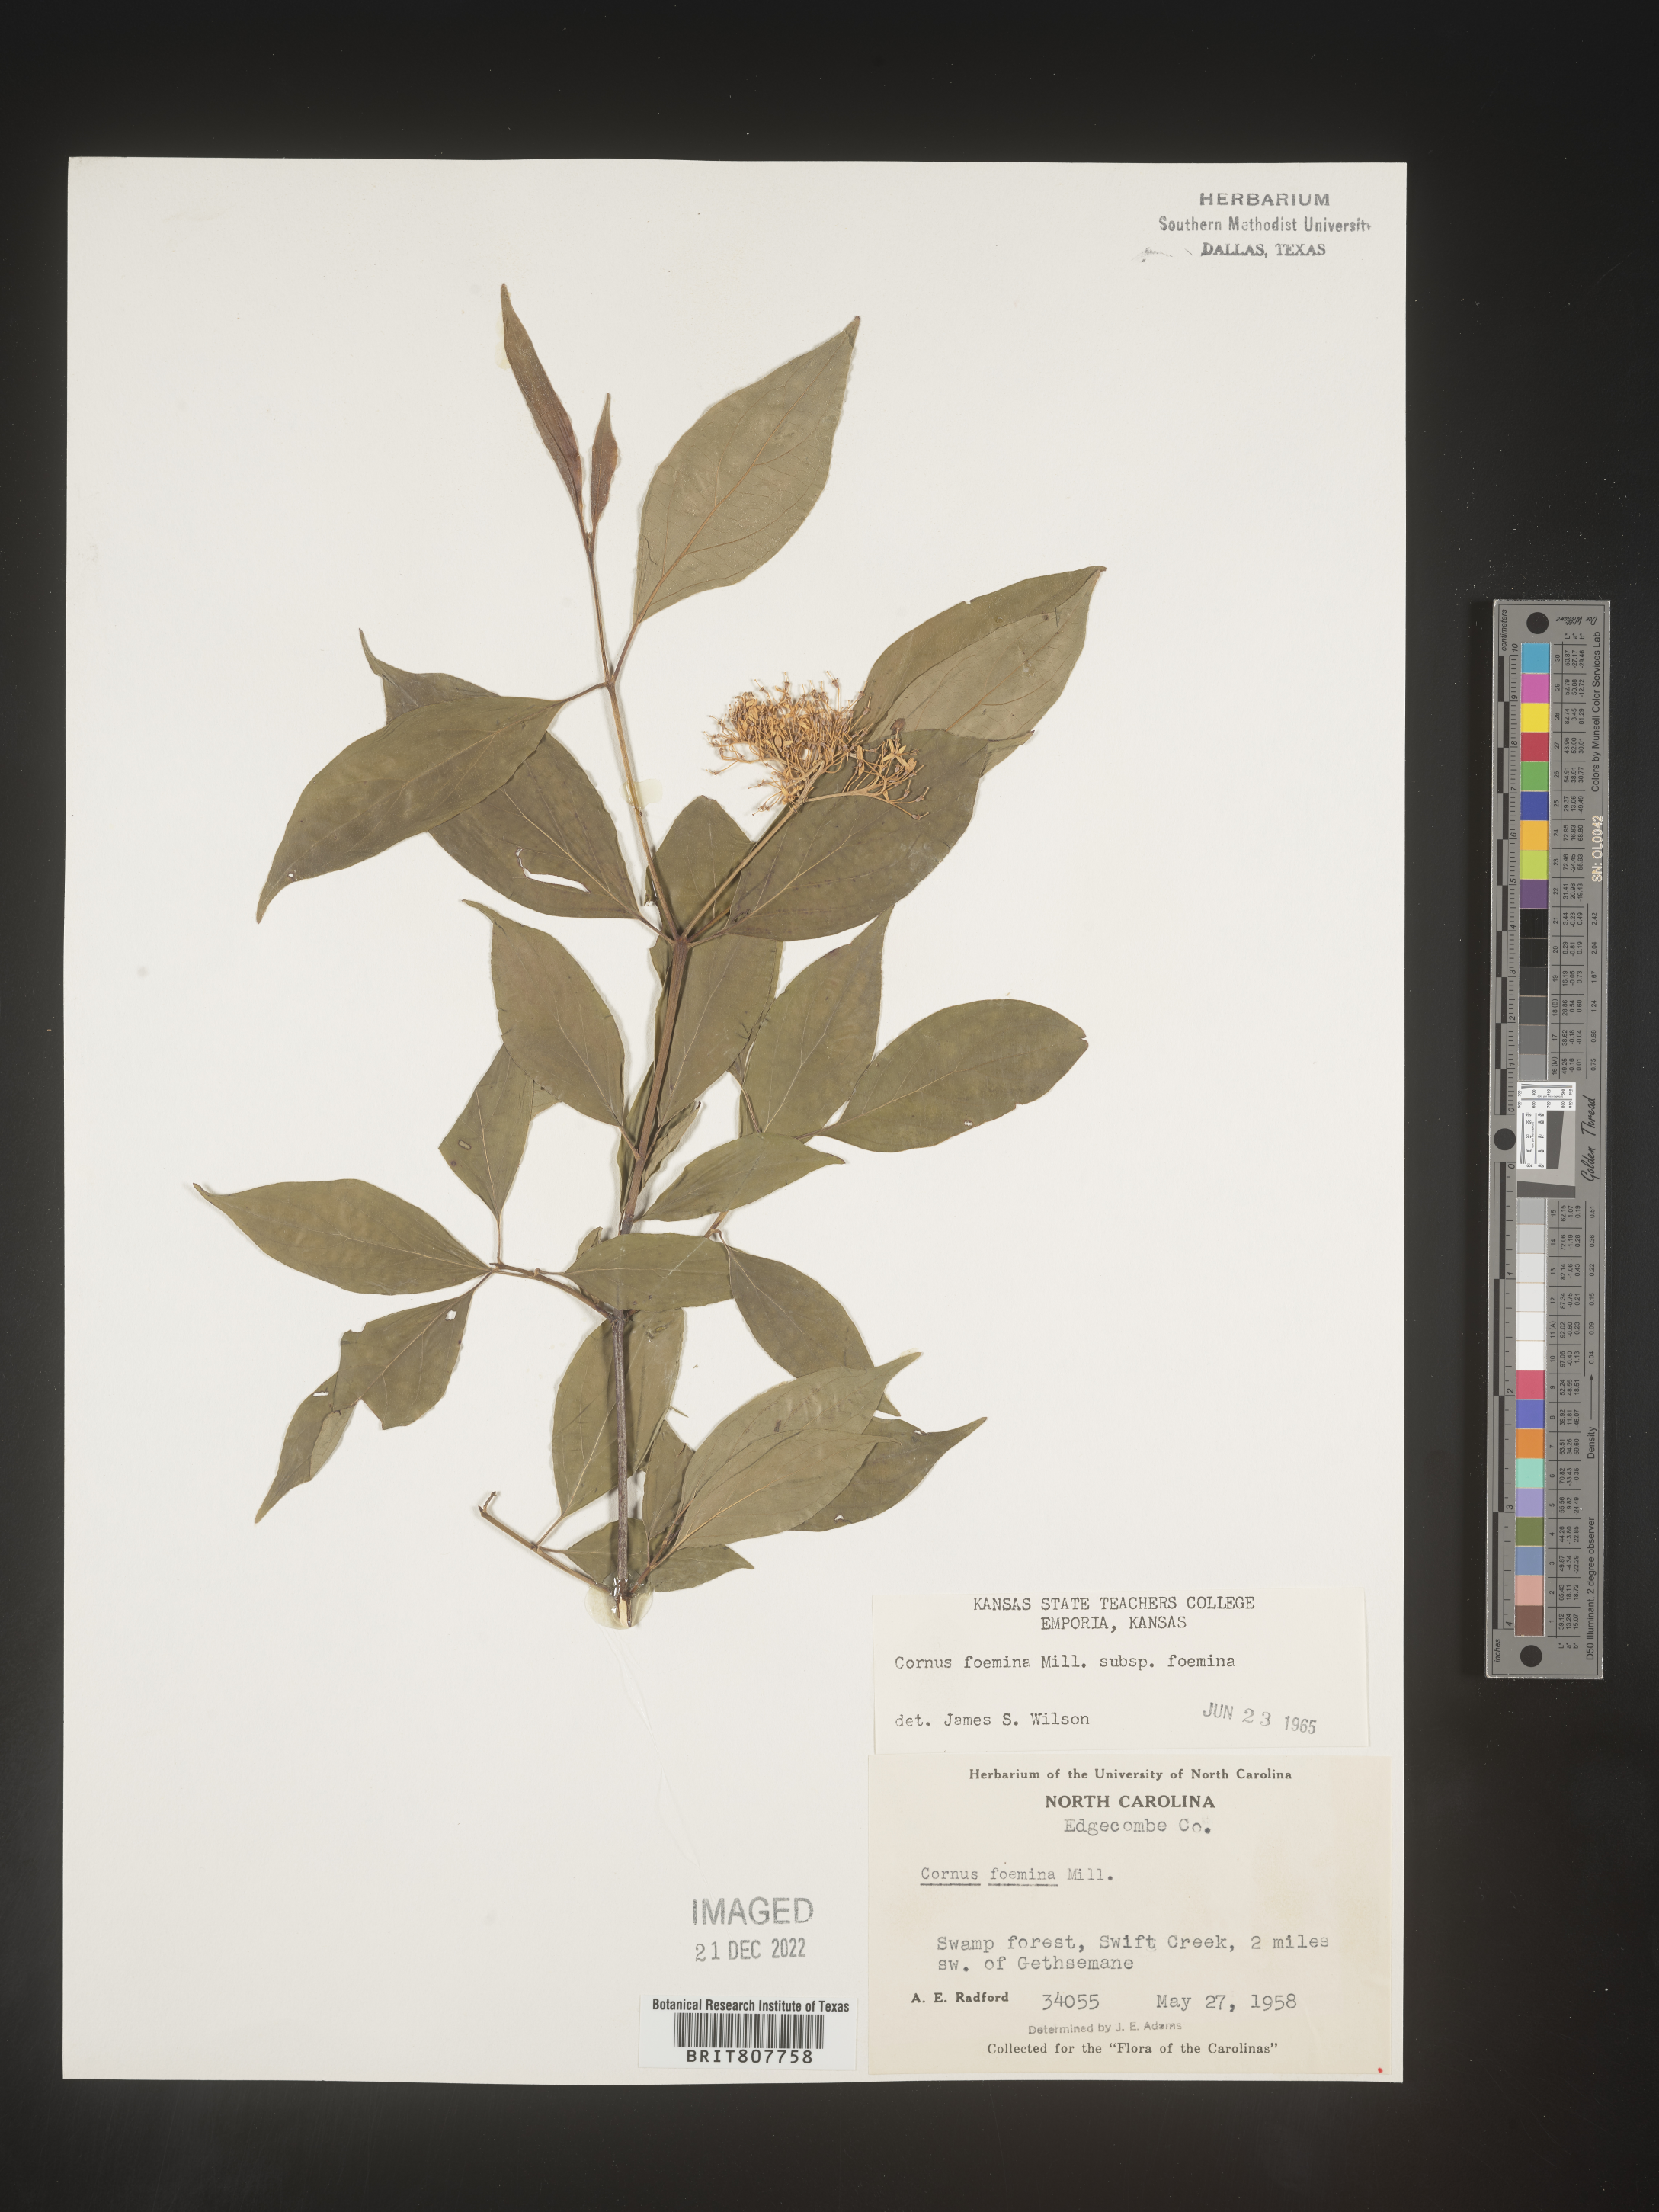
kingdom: Plantae
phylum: Tracheophyta
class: Magnoliopsida
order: Cornales
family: Cornaceae
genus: Cornus
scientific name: Cornus foemina
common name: Swamp dogwood
